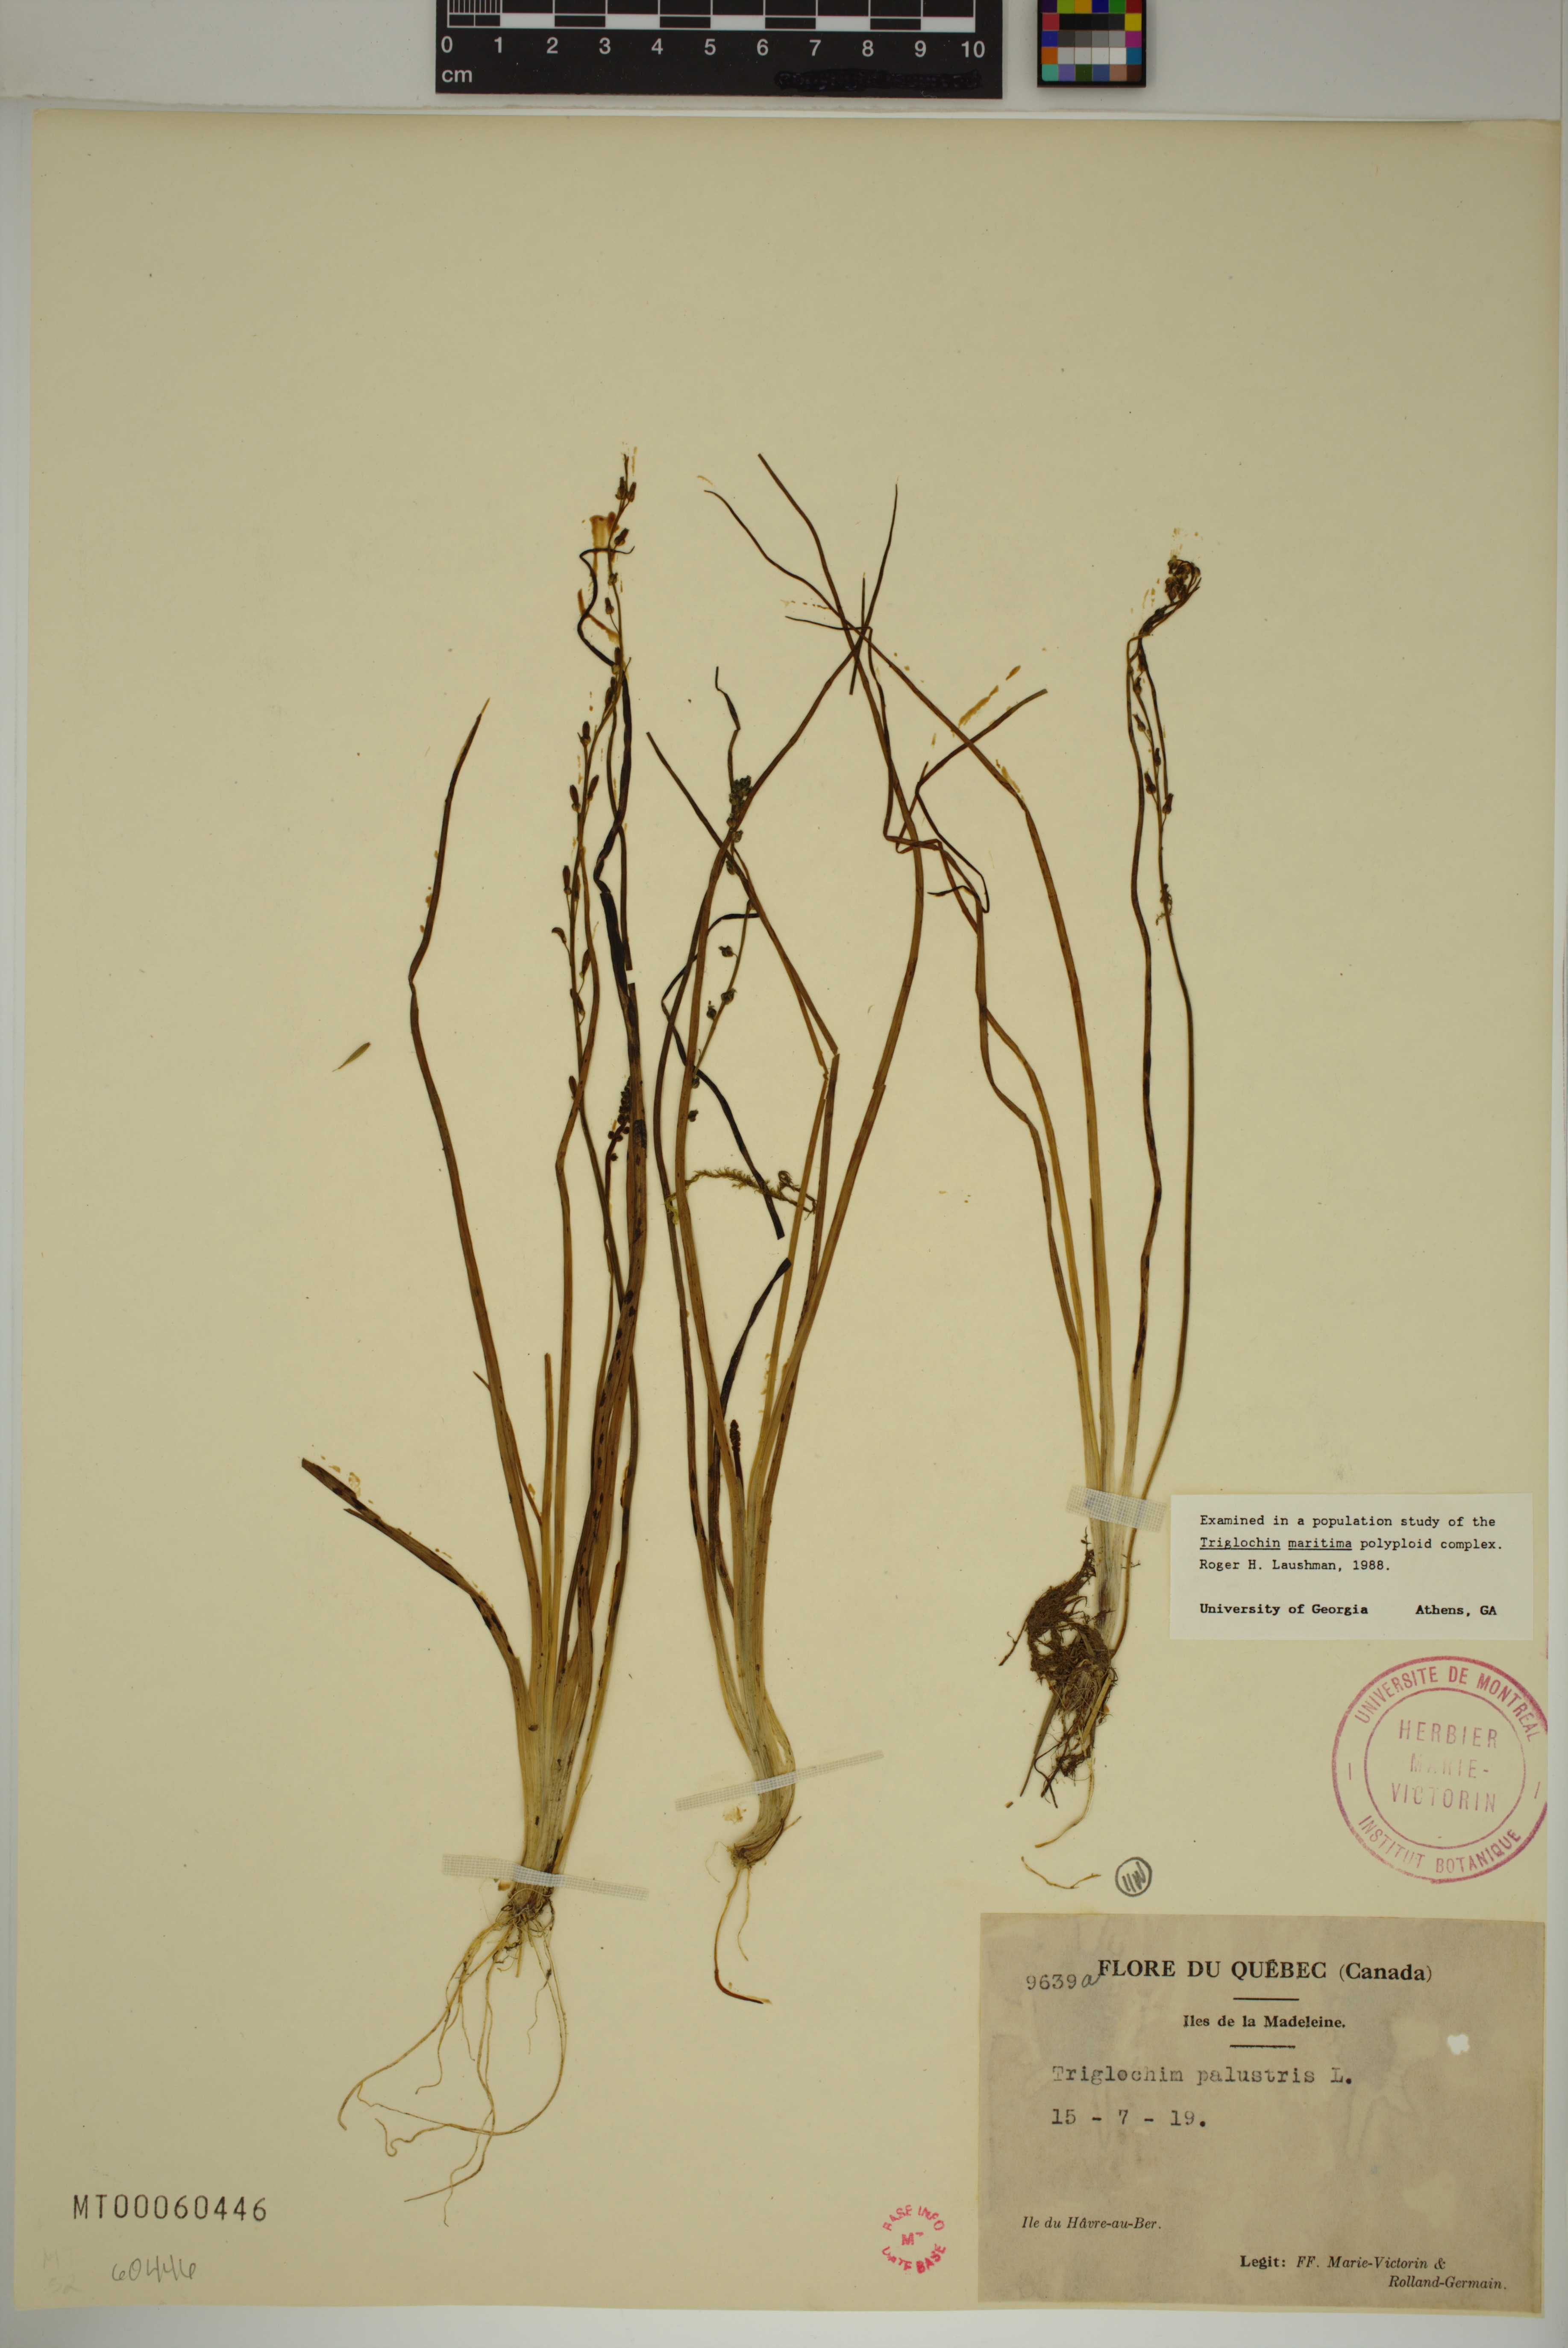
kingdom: Plantae
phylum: Tracheophyta
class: Liliopsida
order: Alismatales
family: Juncaginaceae
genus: Triglochin
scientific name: Triglochin palustris
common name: Marsh arrowgrass
